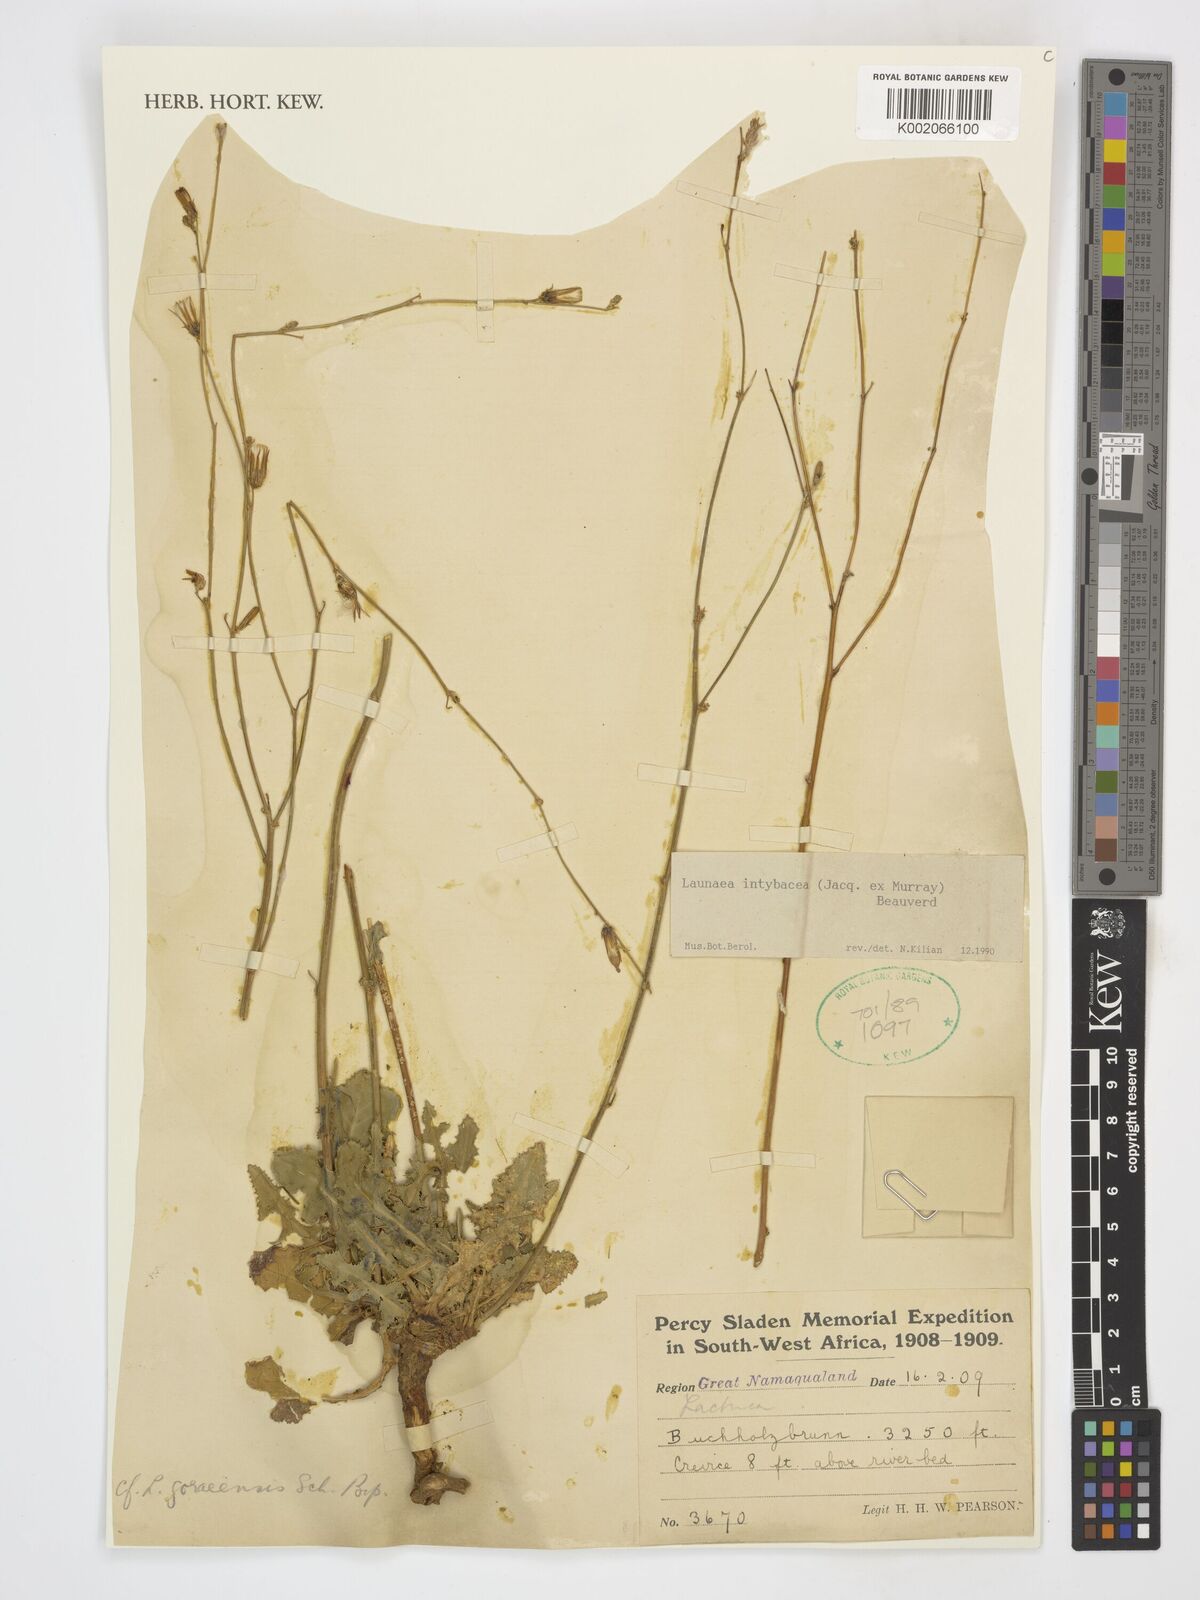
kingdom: Plantae
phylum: Tracheophyta
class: Magnoliopsida
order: Asterales
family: Asteraceae
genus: Launaea
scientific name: Launaea intybacea
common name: Achicoria azul
